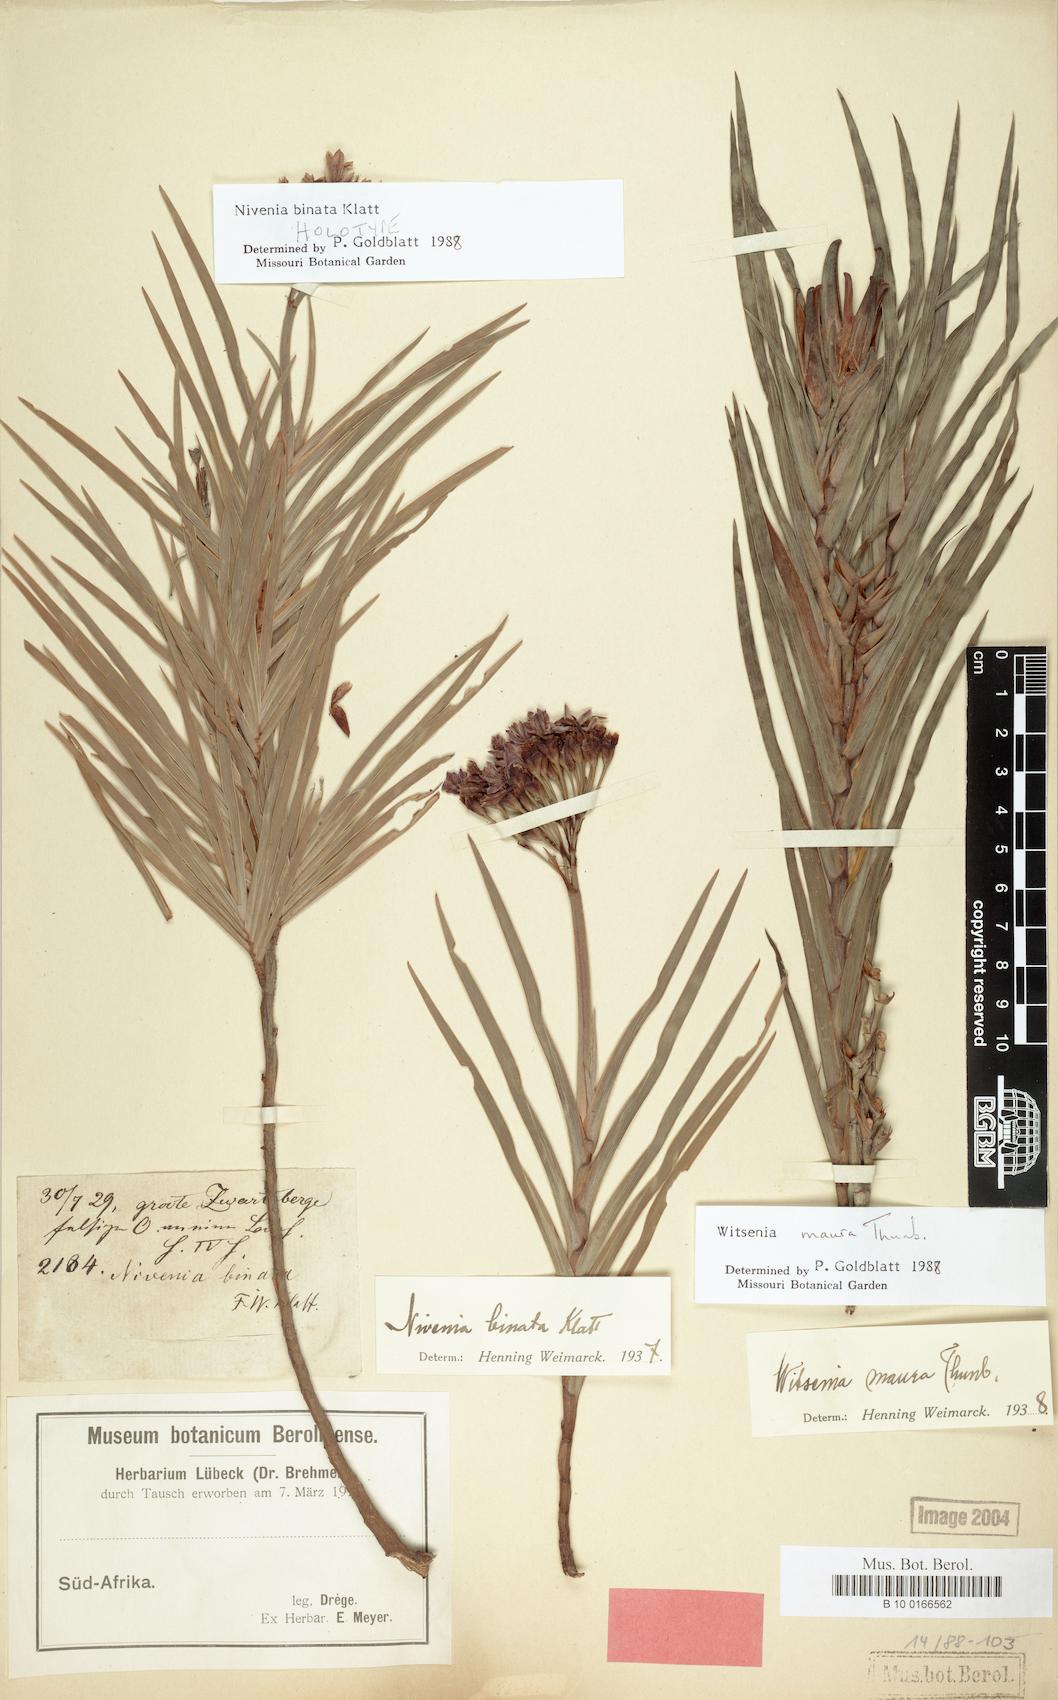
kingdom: Plantae
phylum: Tracheophyta
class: Liliopsida
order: Asparagales
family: Iridaceae
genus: Nivenia
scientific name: Nivenia binata
